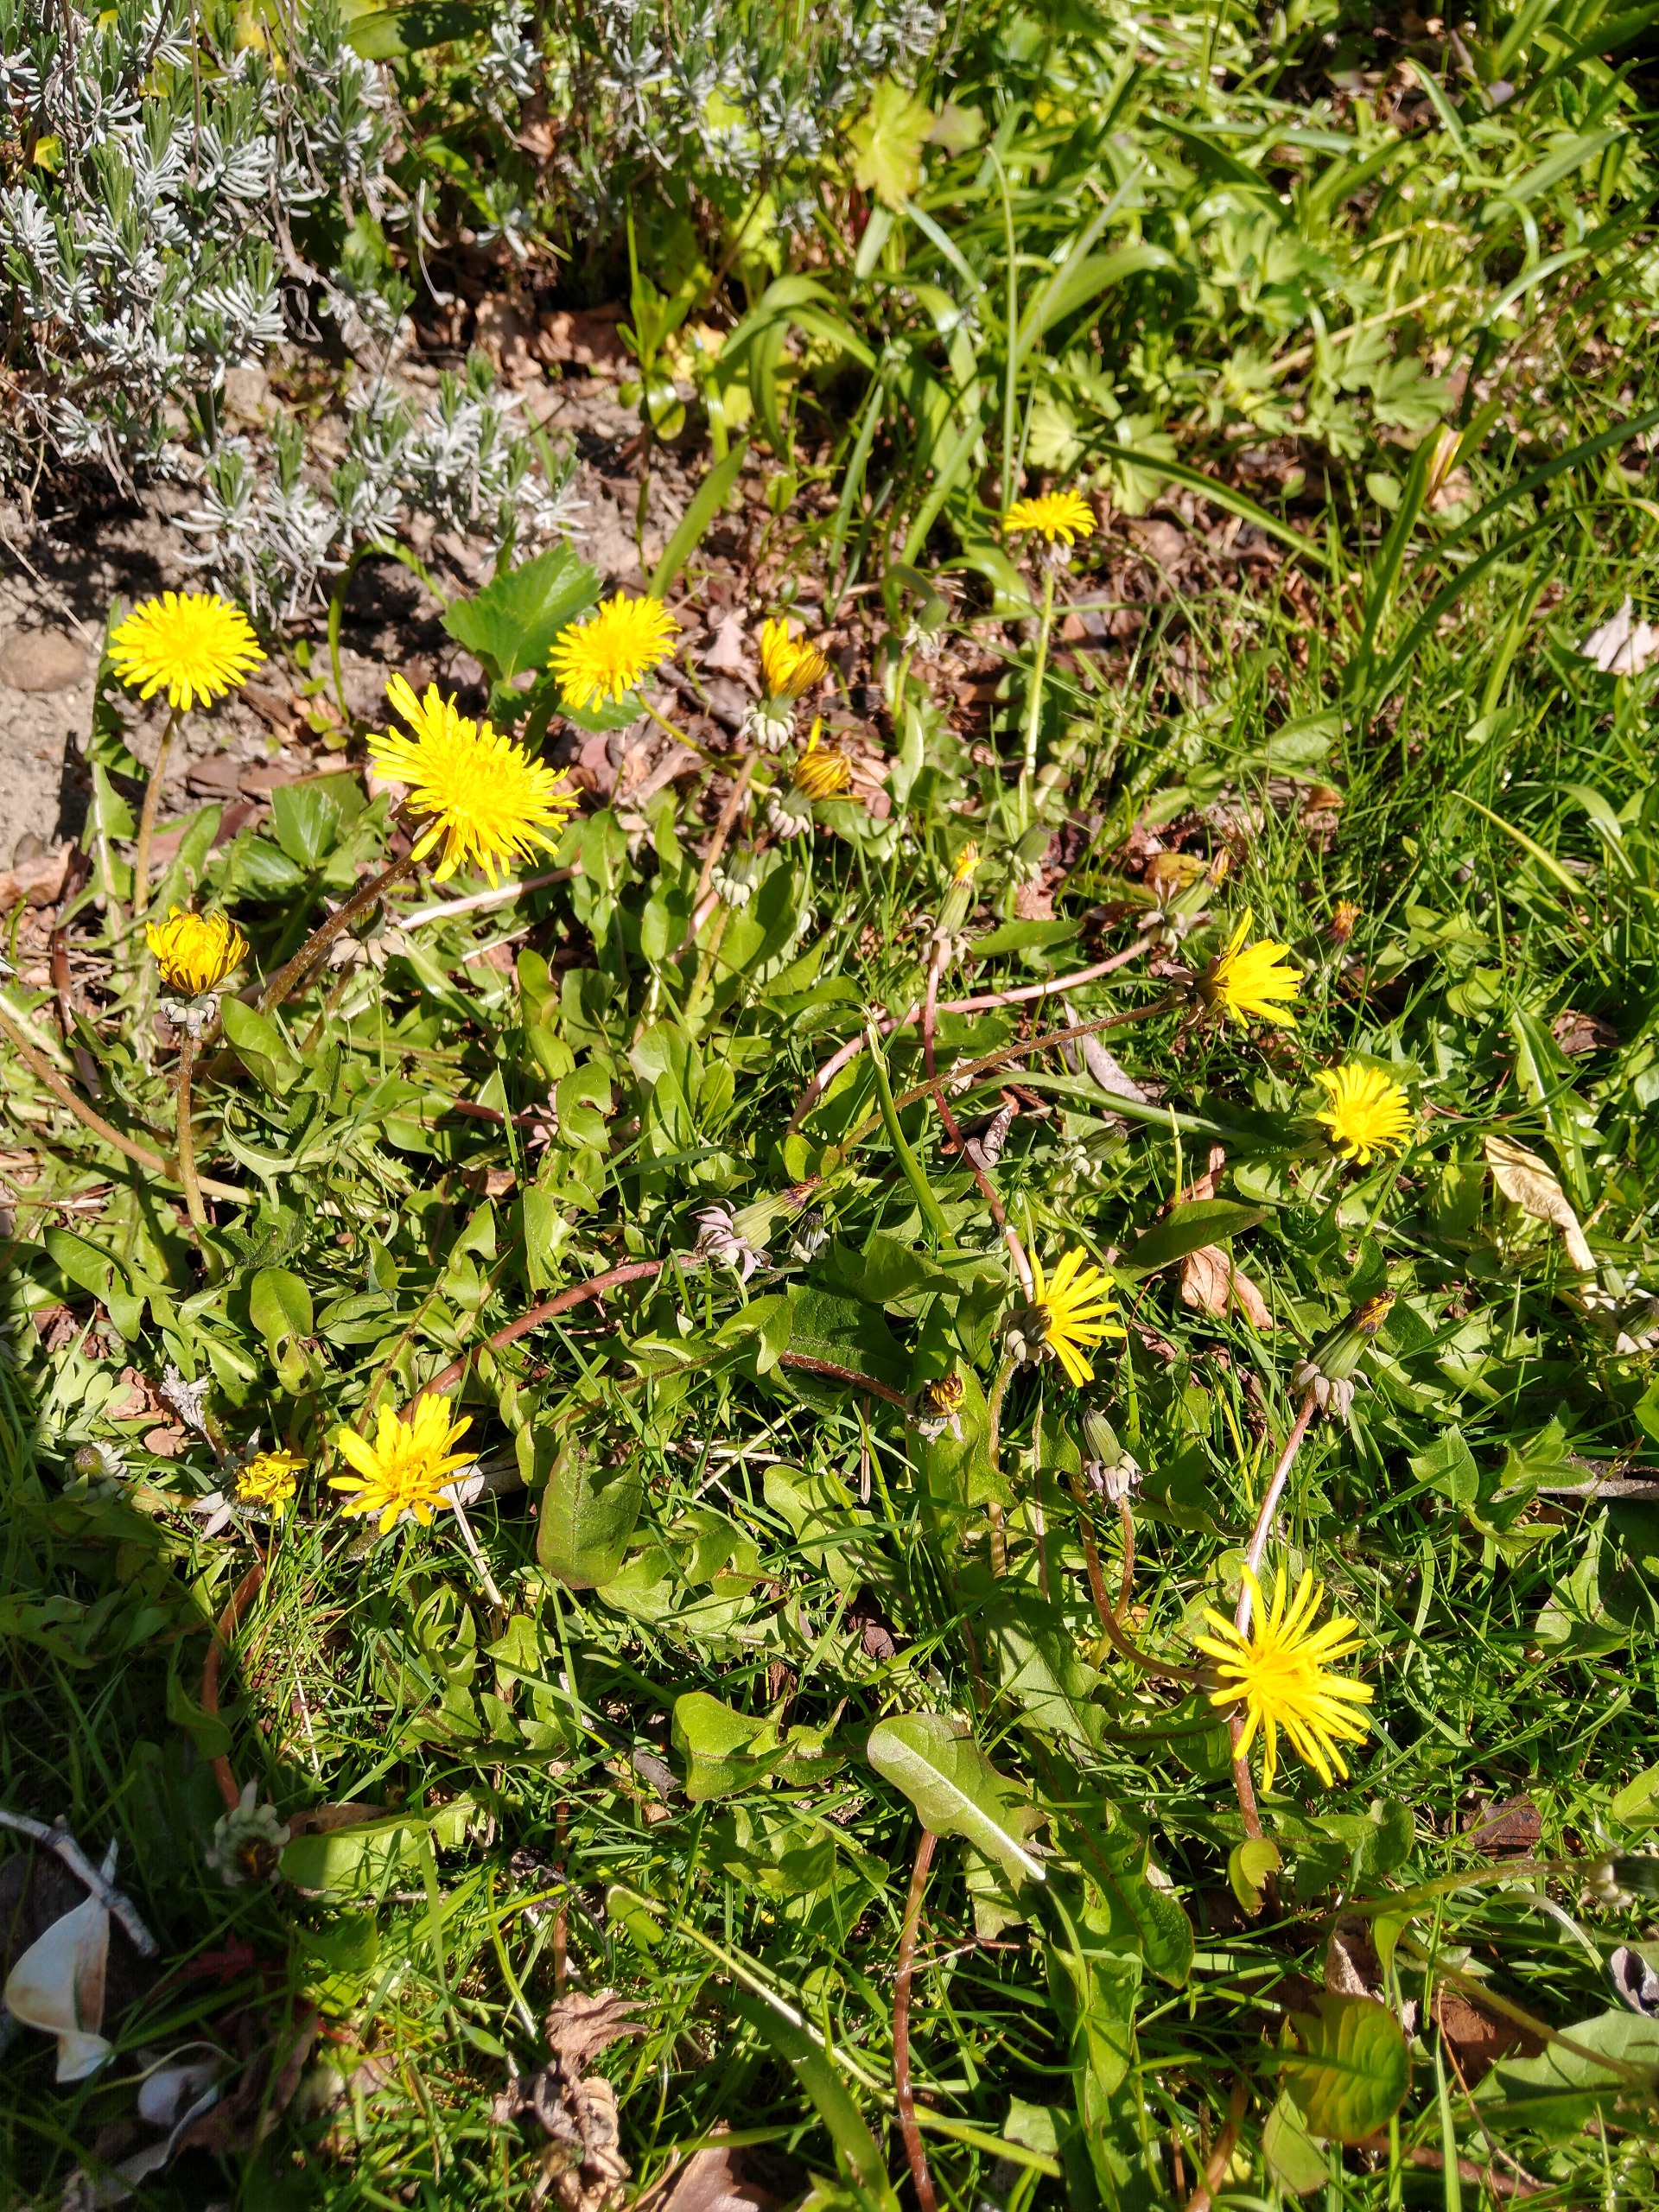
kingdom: Plantae
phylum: Tracheophyta
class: Magnoliopsida
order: Asterales
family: Asteraceae
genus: Taraxacum
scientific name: Taraxacum
